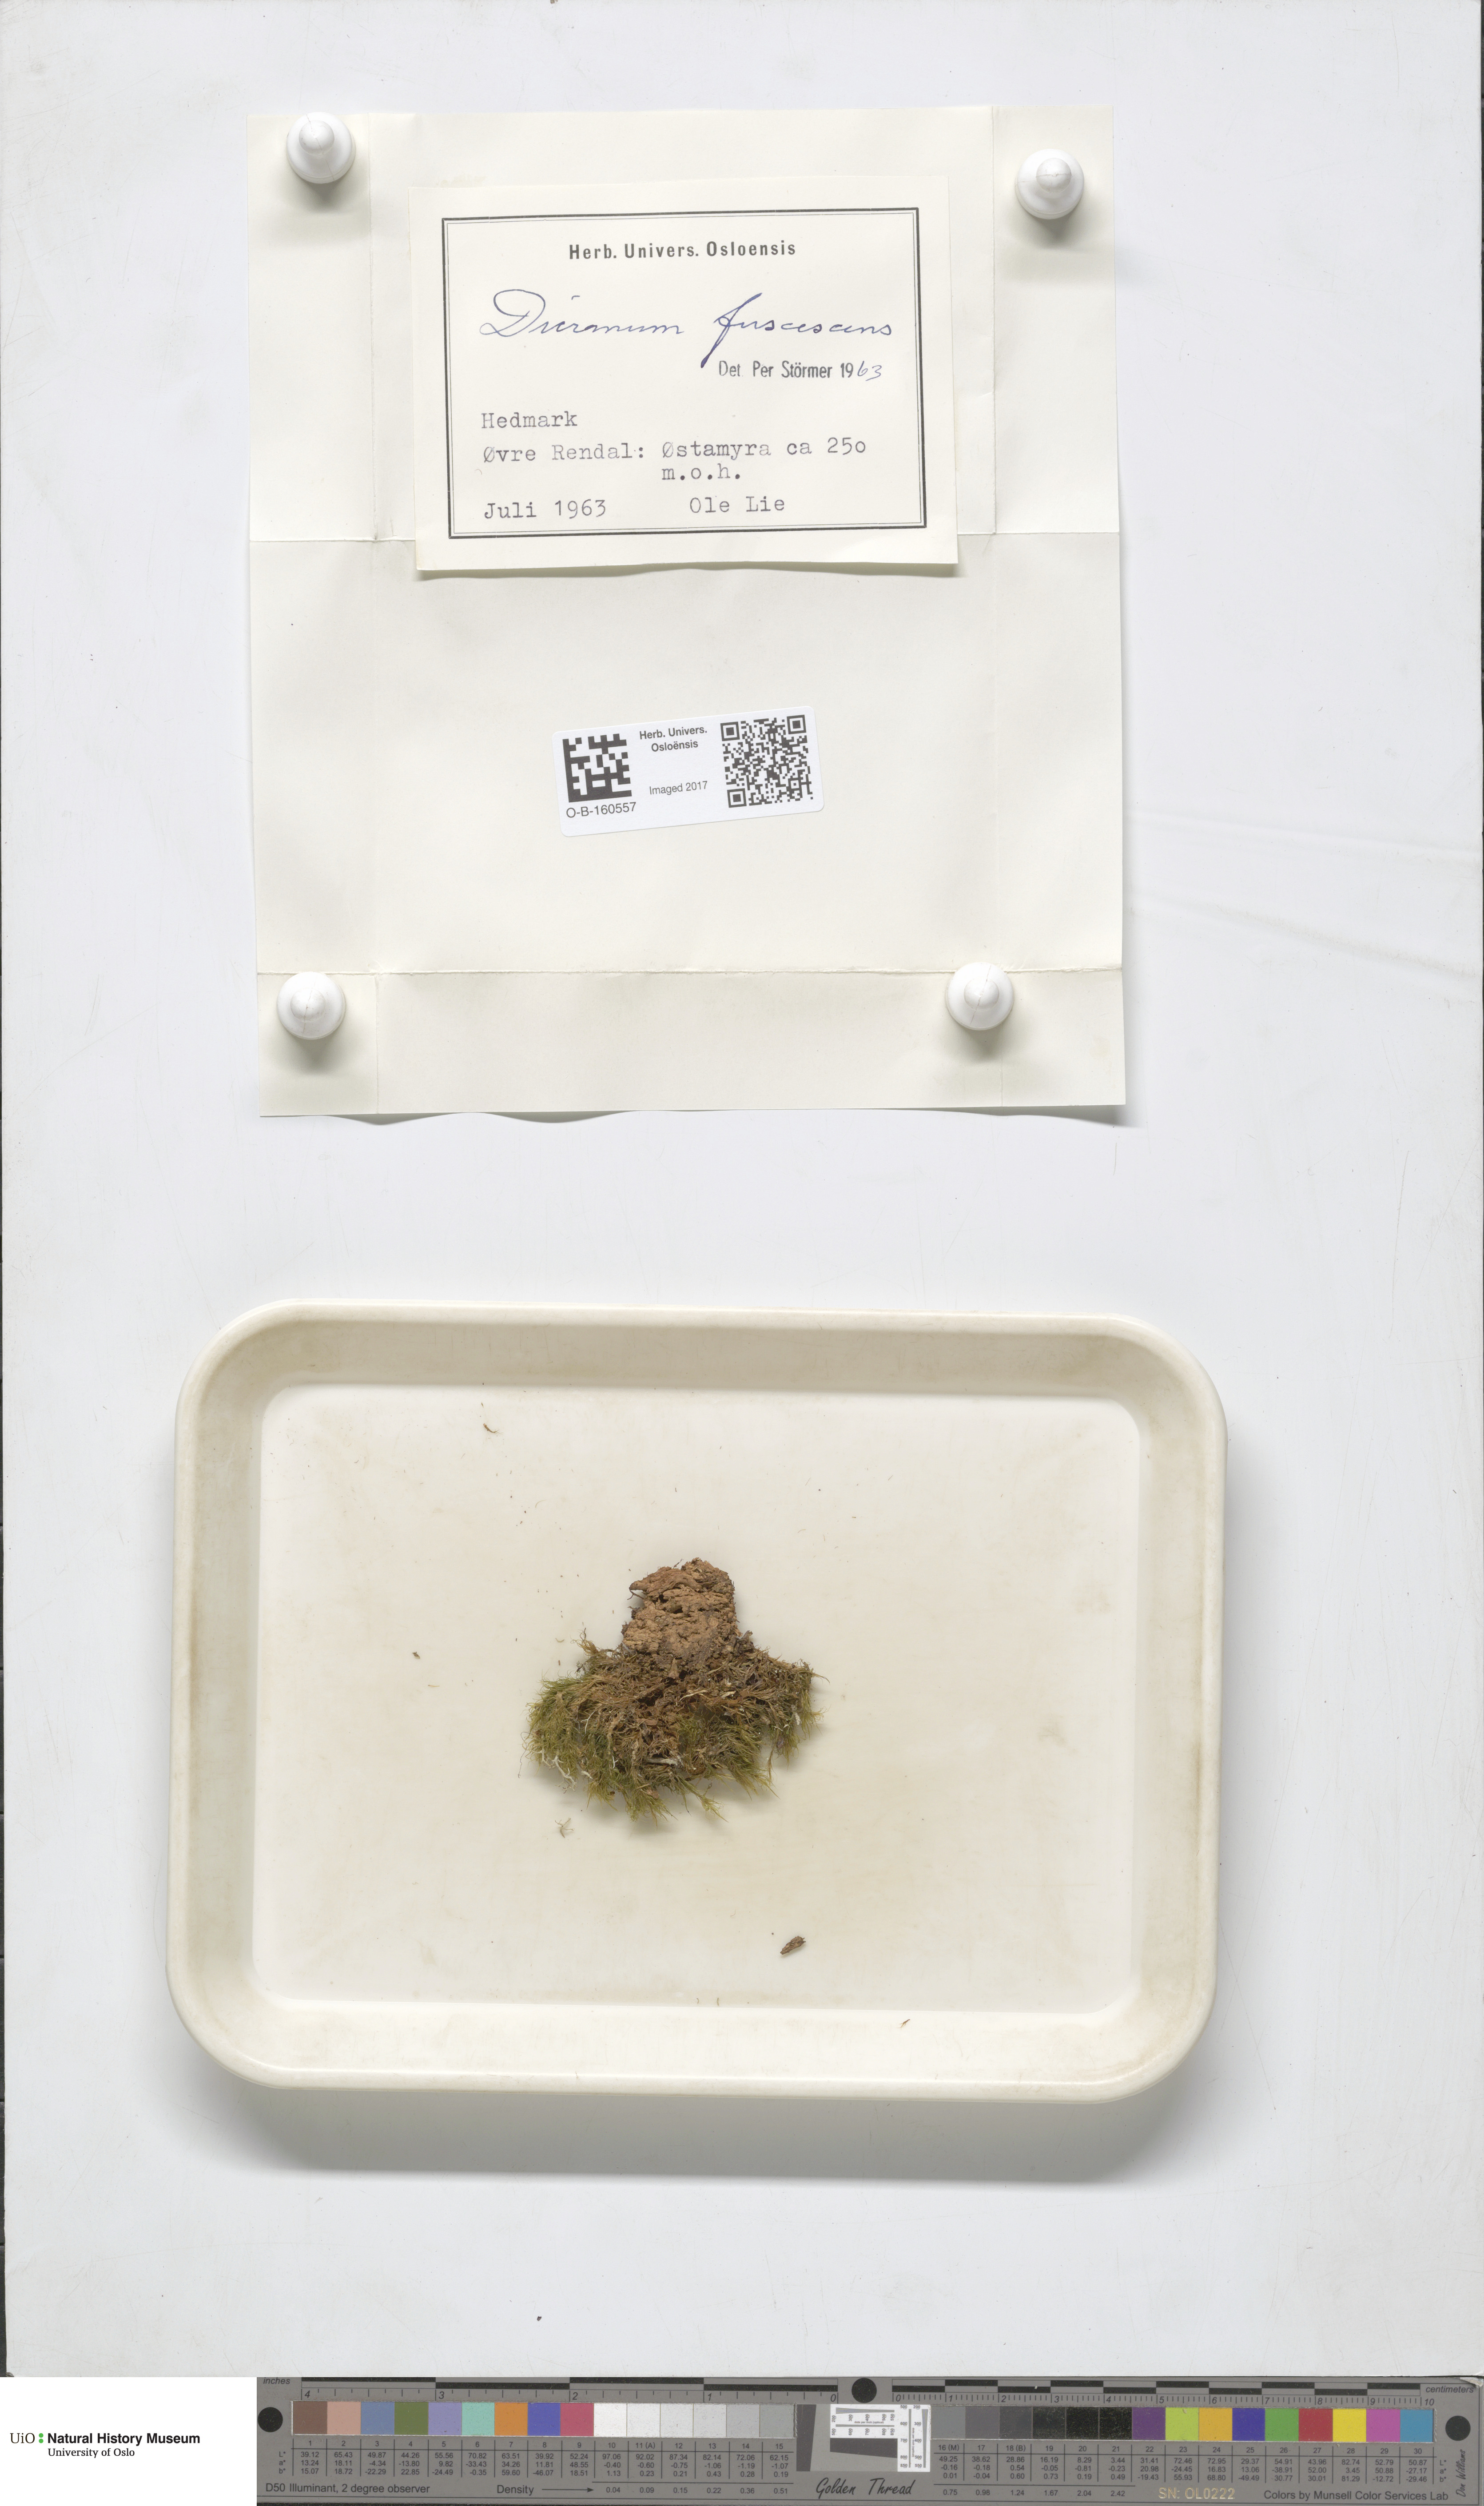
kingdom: Plantae
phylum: Bryophyta
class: Bryopsida
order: Dicranales
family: Dicranaceae
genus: Dicranum
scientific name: Dicranum fuscescens
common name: Curly heron's-bill moss
